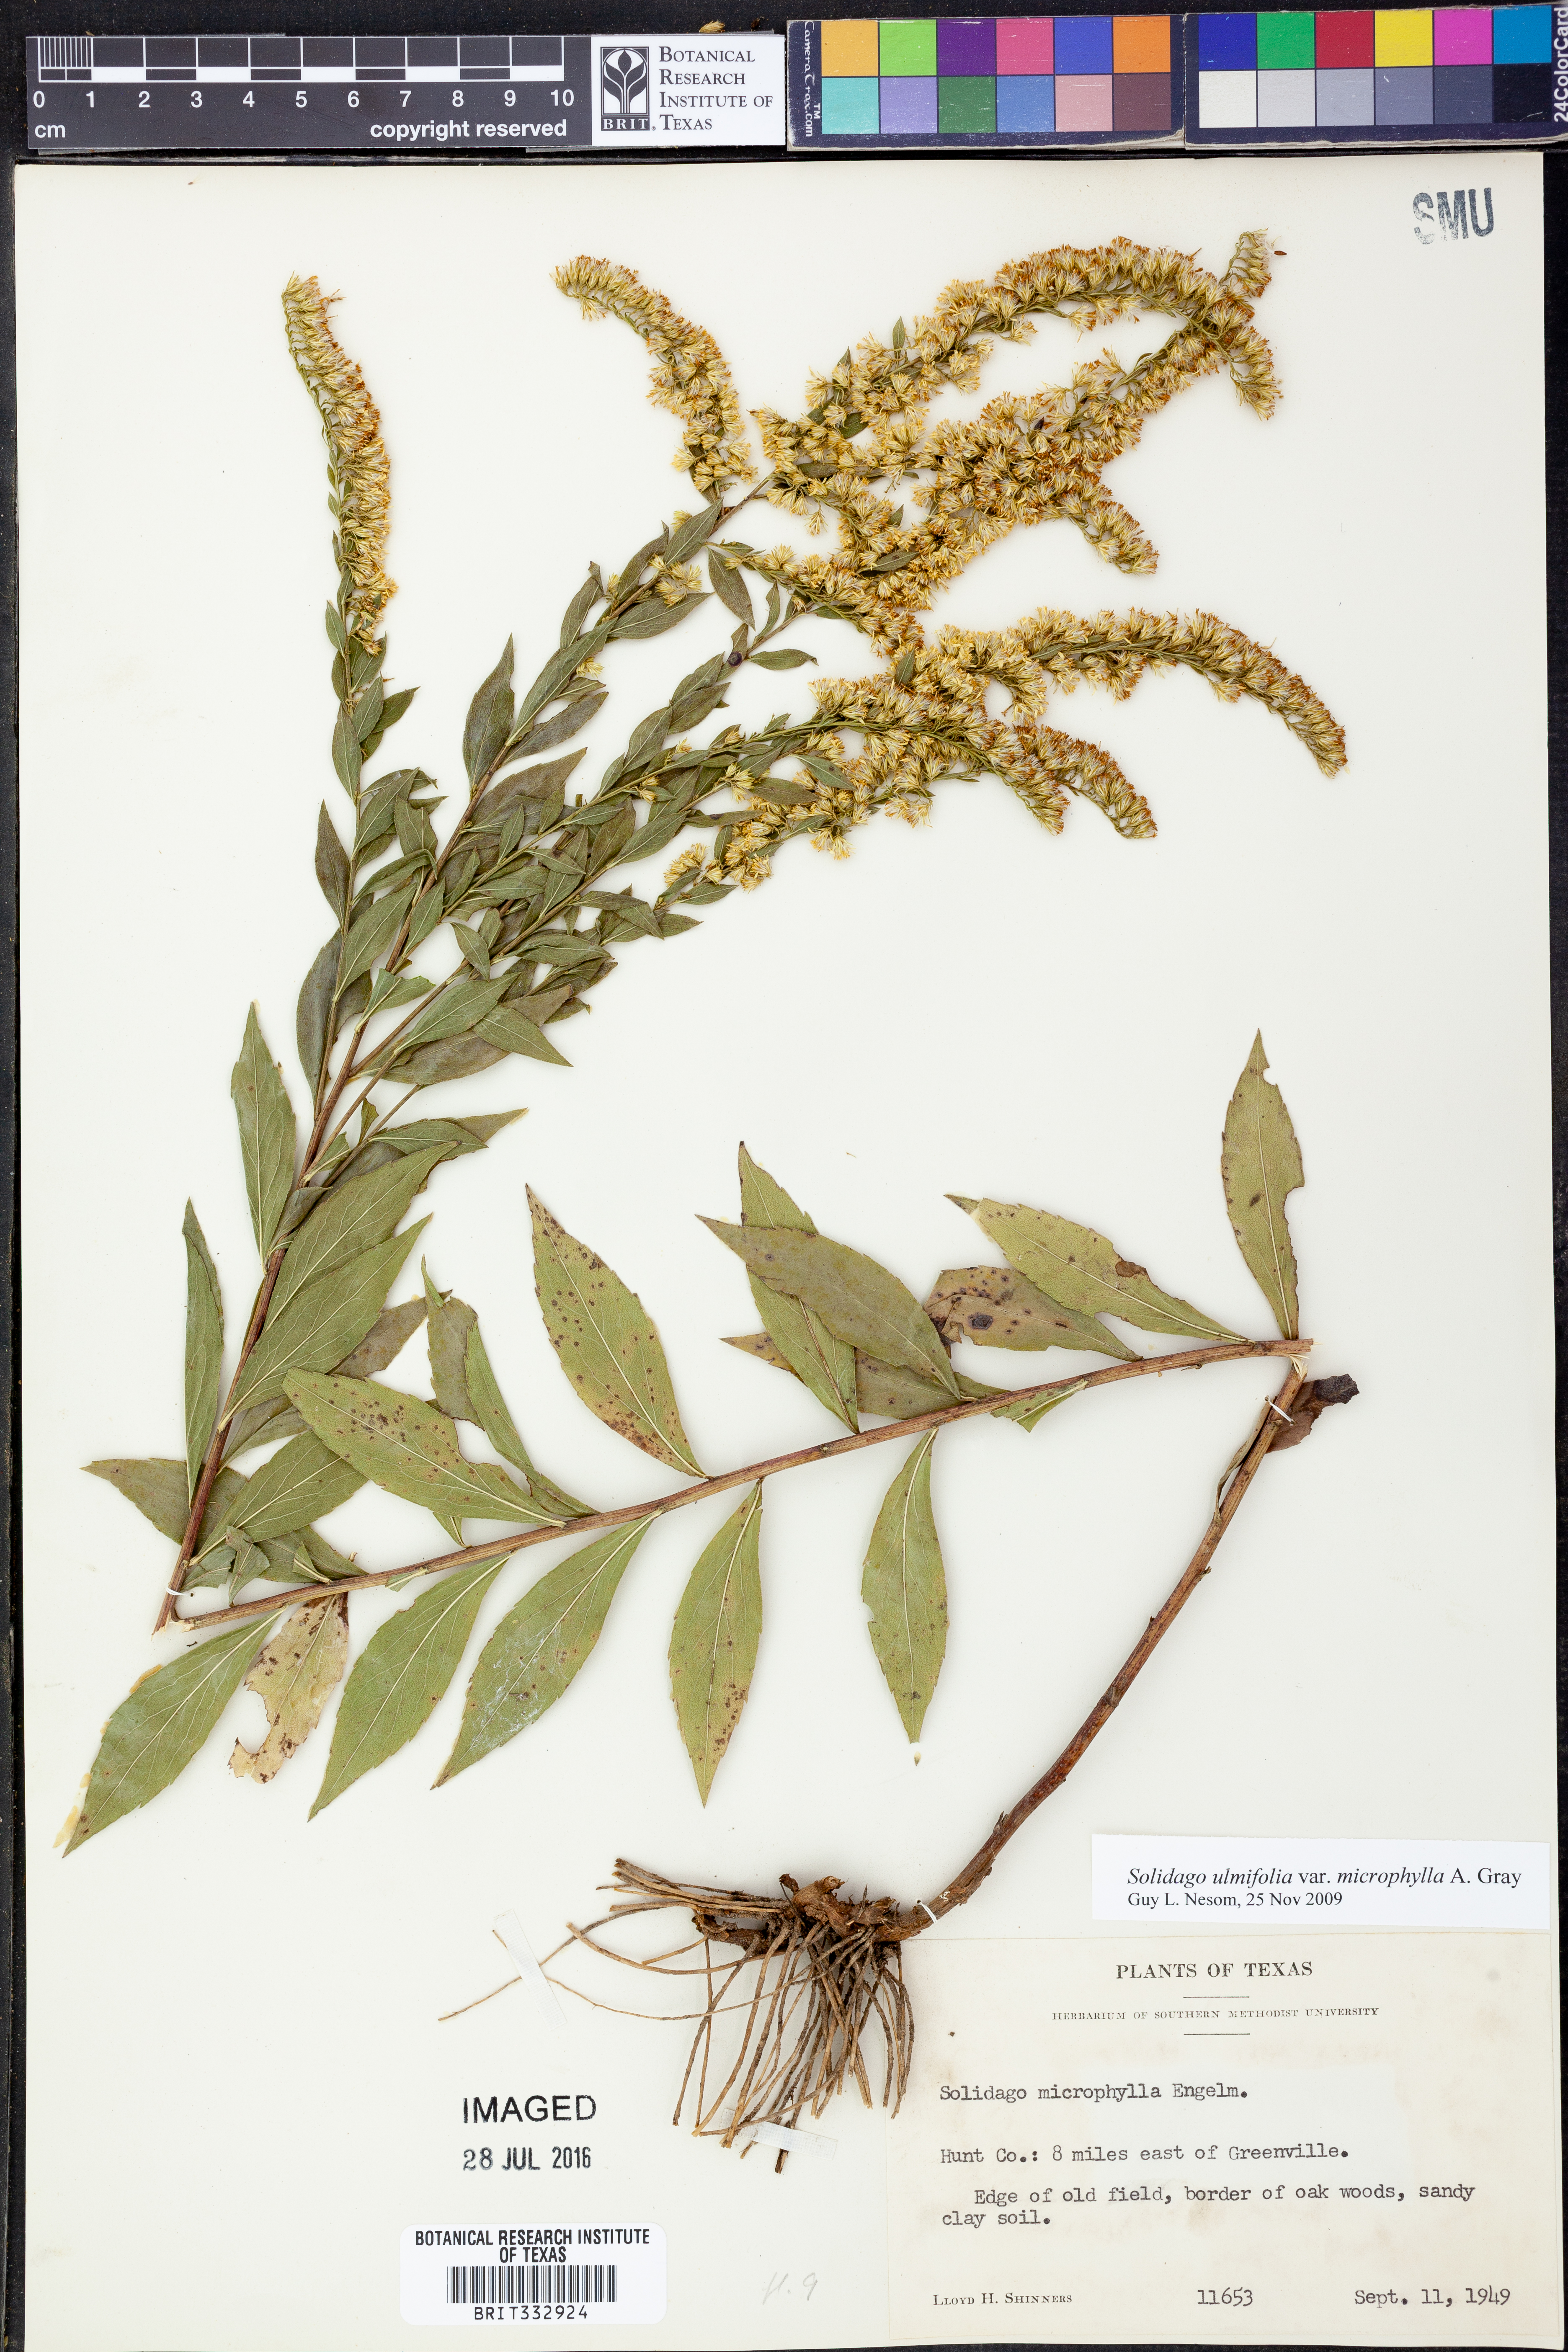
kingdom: Plantae
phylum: Tracheophyta
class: Magnoliopsida
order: Asterales
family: Asteraceae
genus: Solidago
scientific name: Solidago delicatula
